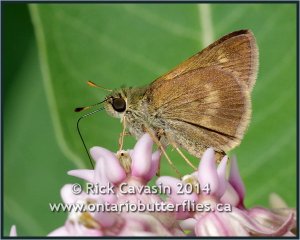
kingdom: Animalia
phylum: Arthropoda
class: Insecta
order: Lepidoptera
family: Hesperiidae
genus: Polites
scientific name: Polites egeremet
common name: Northern Broken-Dash
